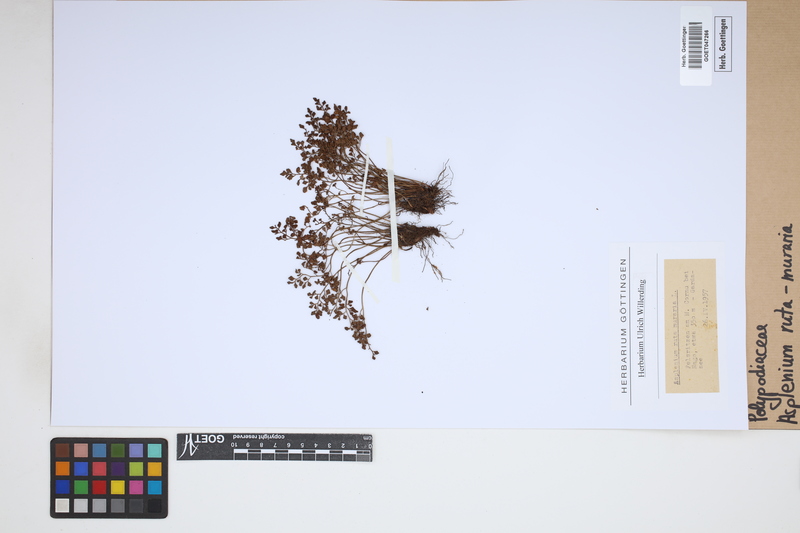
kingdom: Plantae
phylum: Tracheophyta
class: Polypodiopsida
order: Polypodiales
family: Aspleniaceae
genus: Asplenium
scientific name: Asplenium ruta-muraria
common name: Wall-rue
